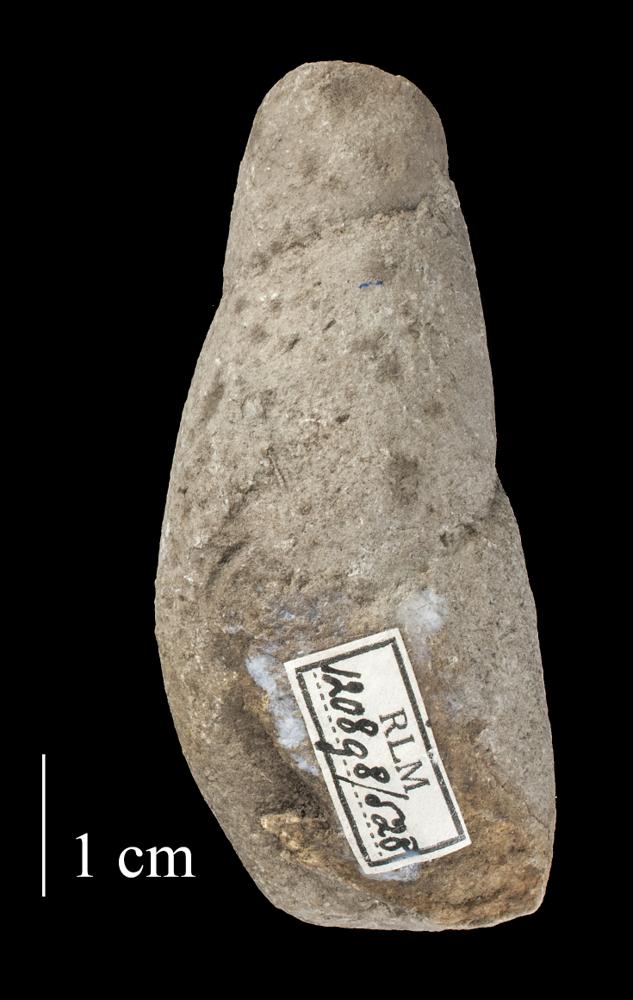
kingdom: Animalia
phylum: Mollusca
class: Gastropoda
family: Subulitidae
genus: Subulites
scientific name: Subulites
